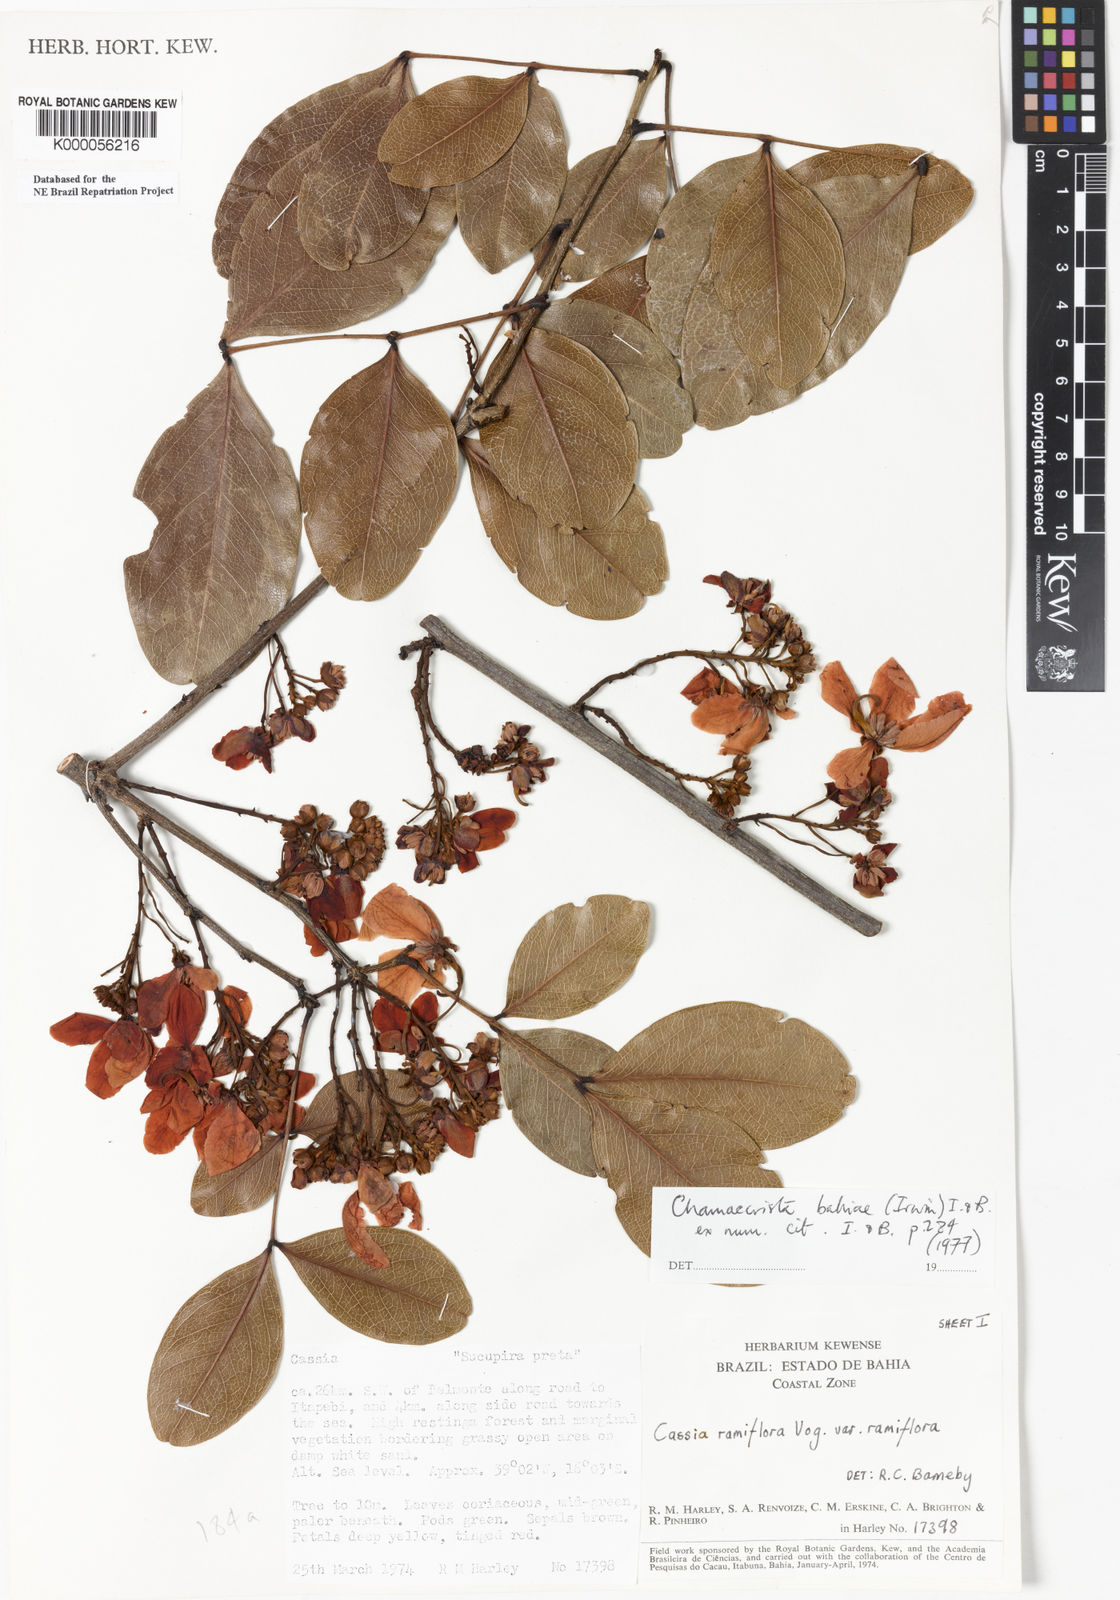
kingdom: Plantae
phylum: Tracheophyta
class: Magnoliopsida
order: Fabales
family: Fabaceae
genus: Chamaecrista
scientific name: Chamaecrista bahiae
